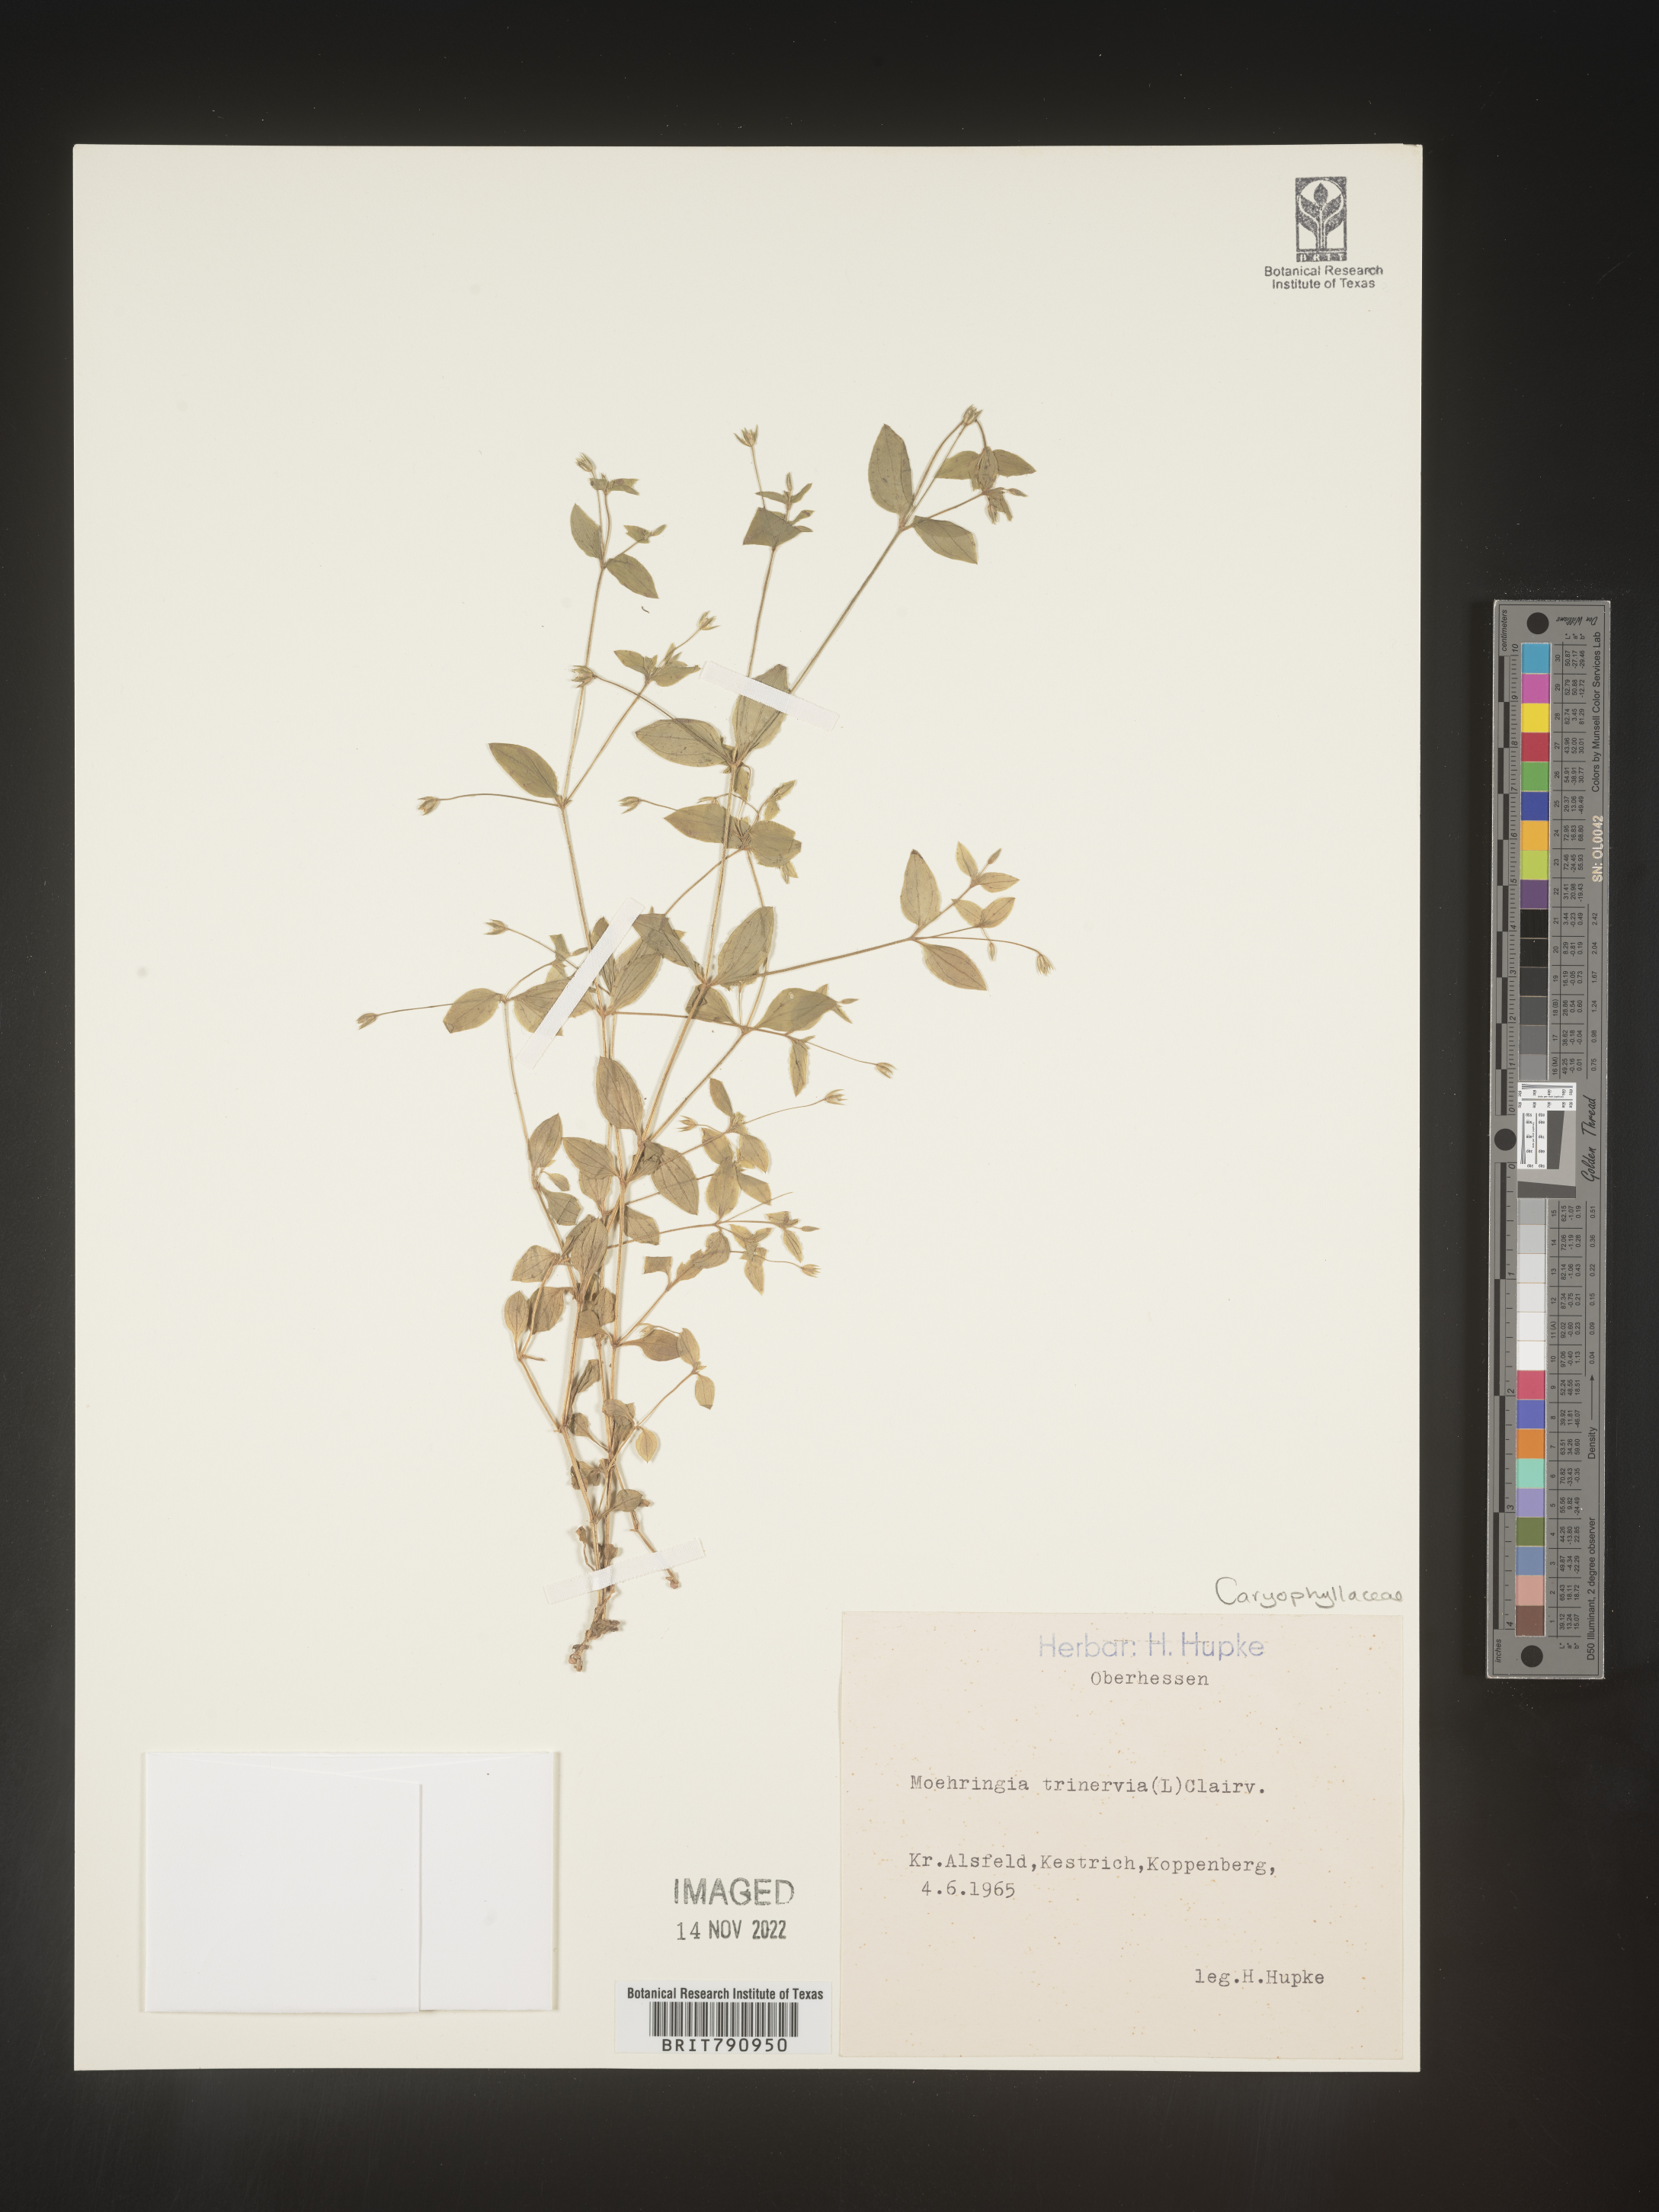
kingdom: Plantae
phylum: Tracheophyta
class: Magnoliopsida
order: Caryophyllales
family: Caryophyllaceae
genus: Moehringia
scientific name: Moehringia
